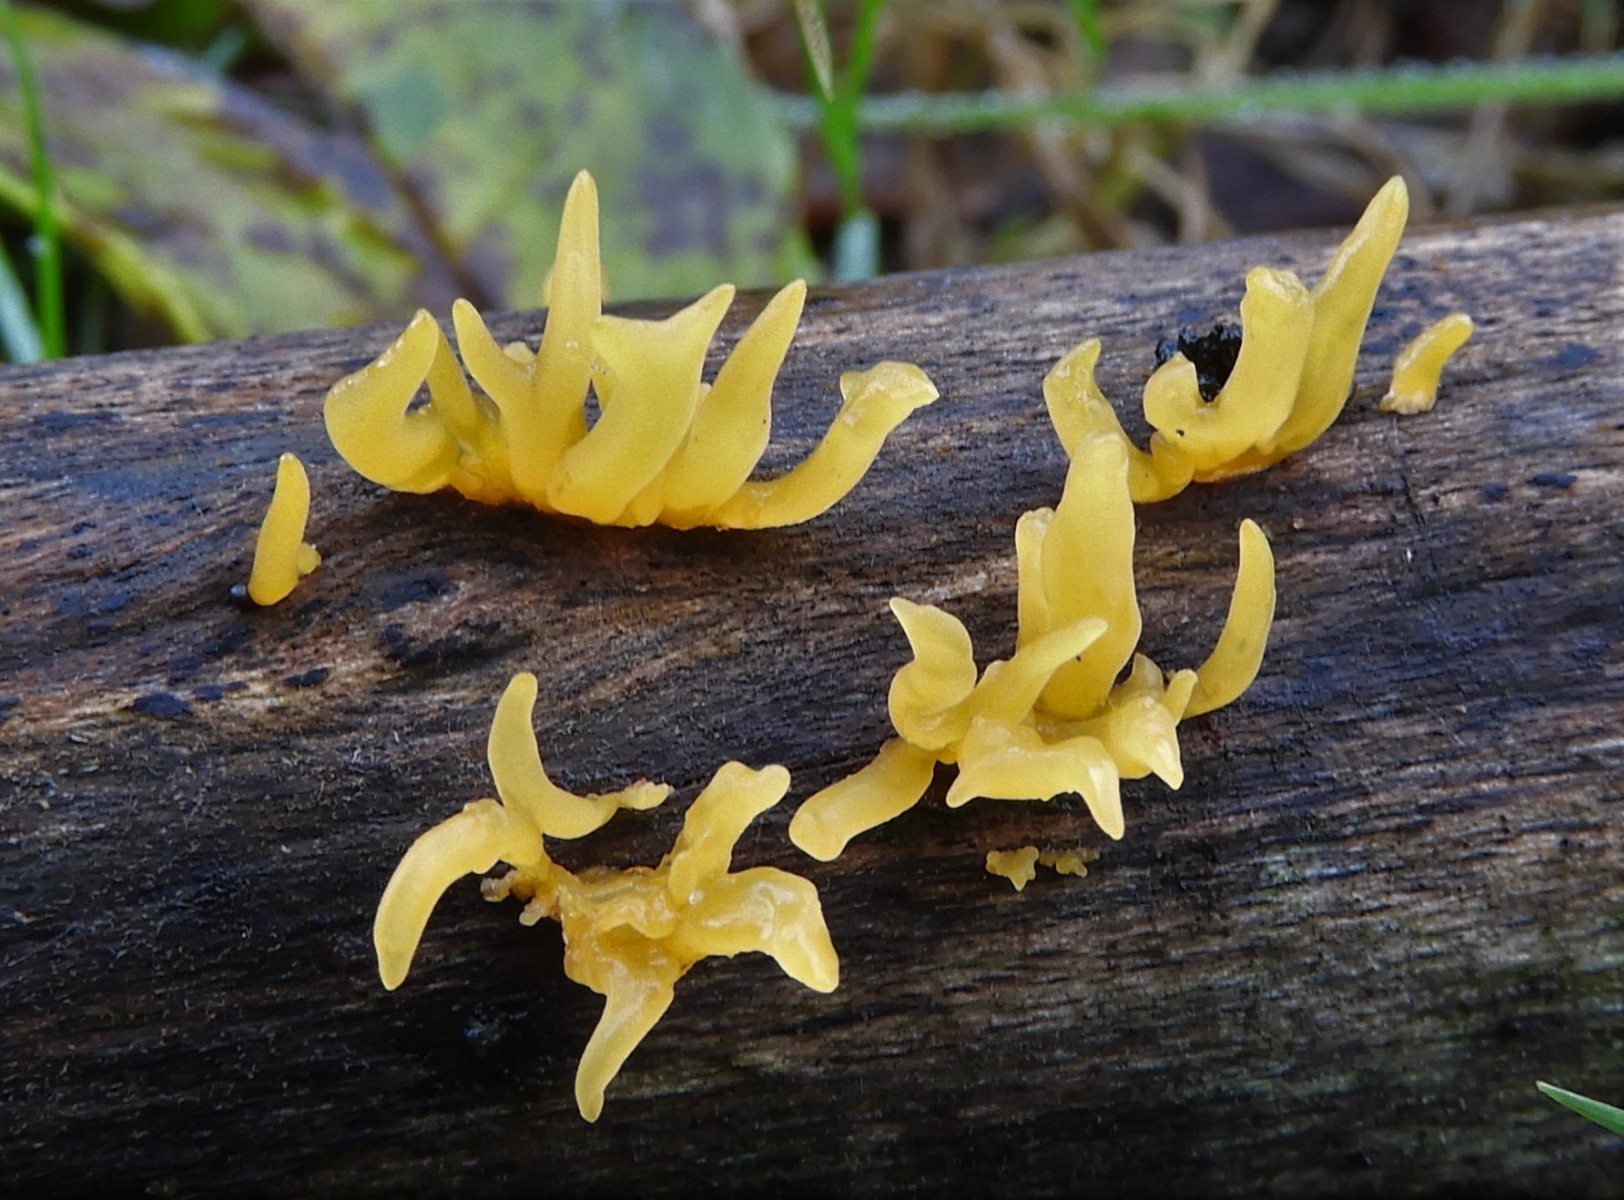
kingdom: Fungi
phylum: Basidiomycota
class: Dacrymycetes
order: Dacrymycetales
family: Dacrymycetaceae
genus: Calocera
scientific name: Calocera cornea
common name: liden guldgaffel
